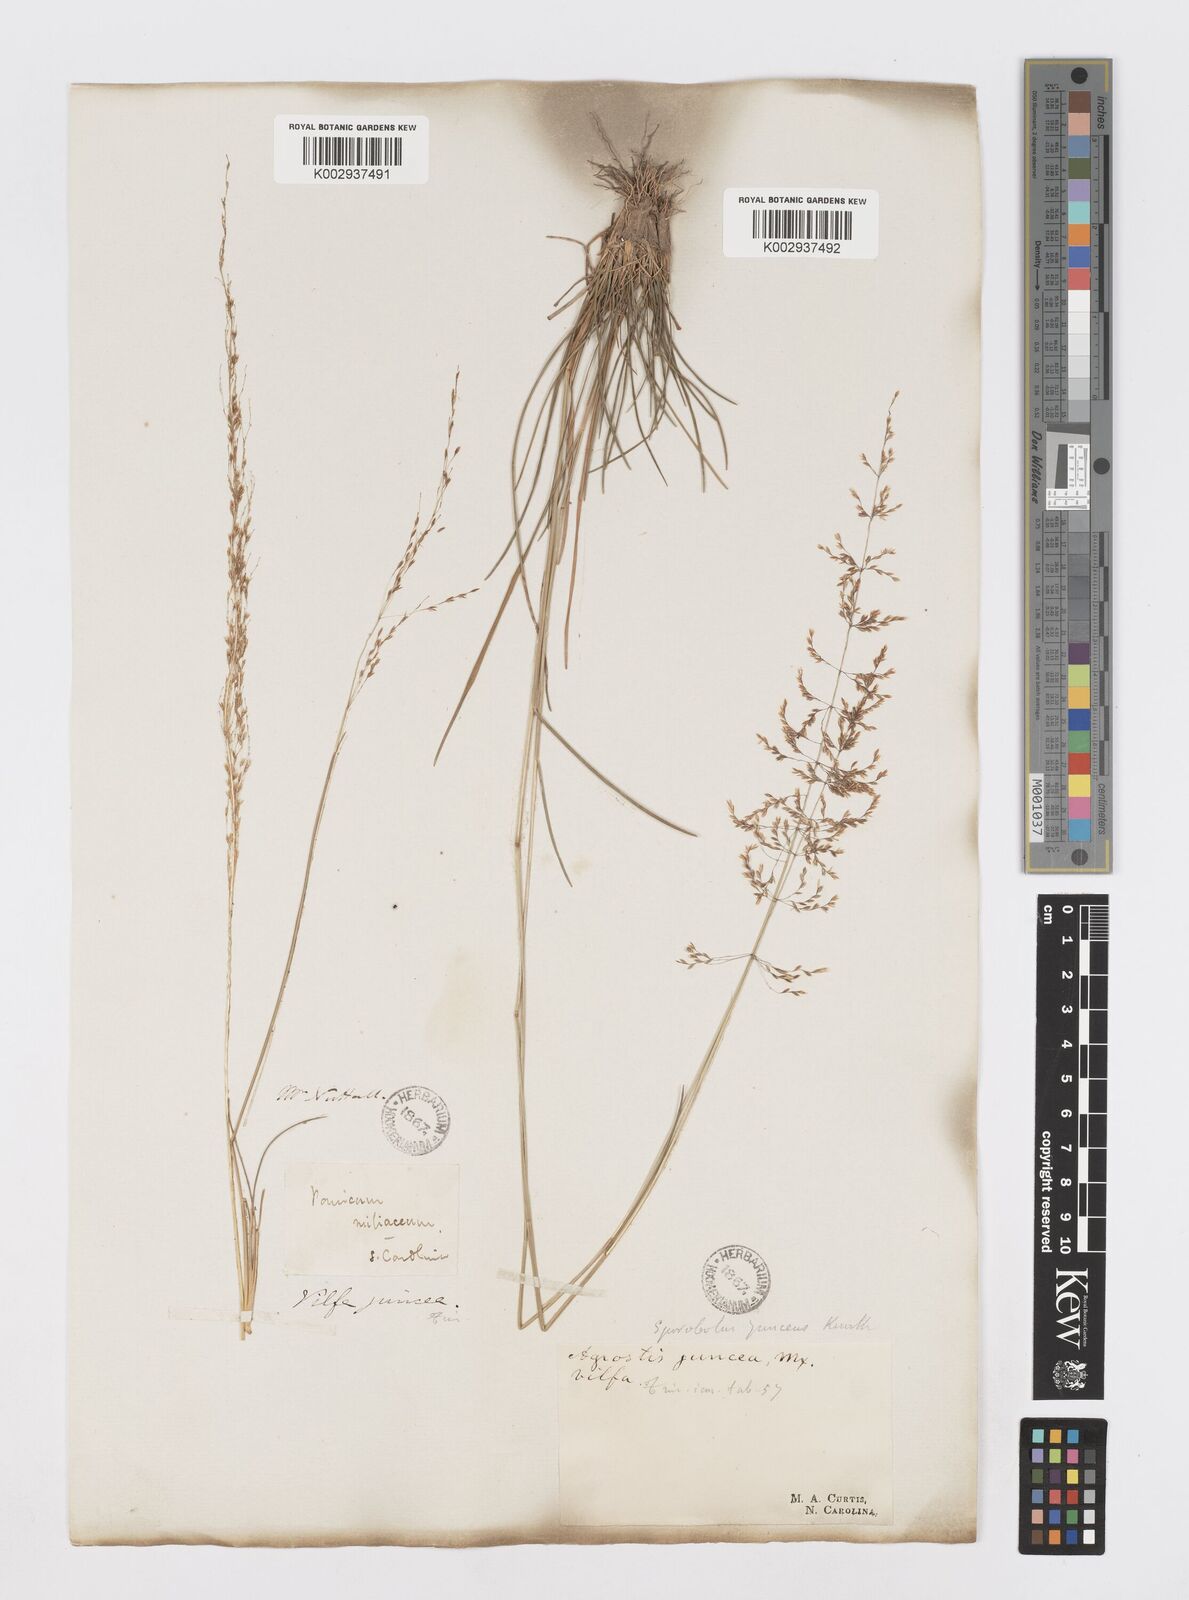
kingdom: Plantae
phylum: Tracheophyta
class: Liliopsida
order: Poales
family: Poaceae
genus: Sporobolus
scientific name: Sporobolus junceus
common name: Lizard grass
